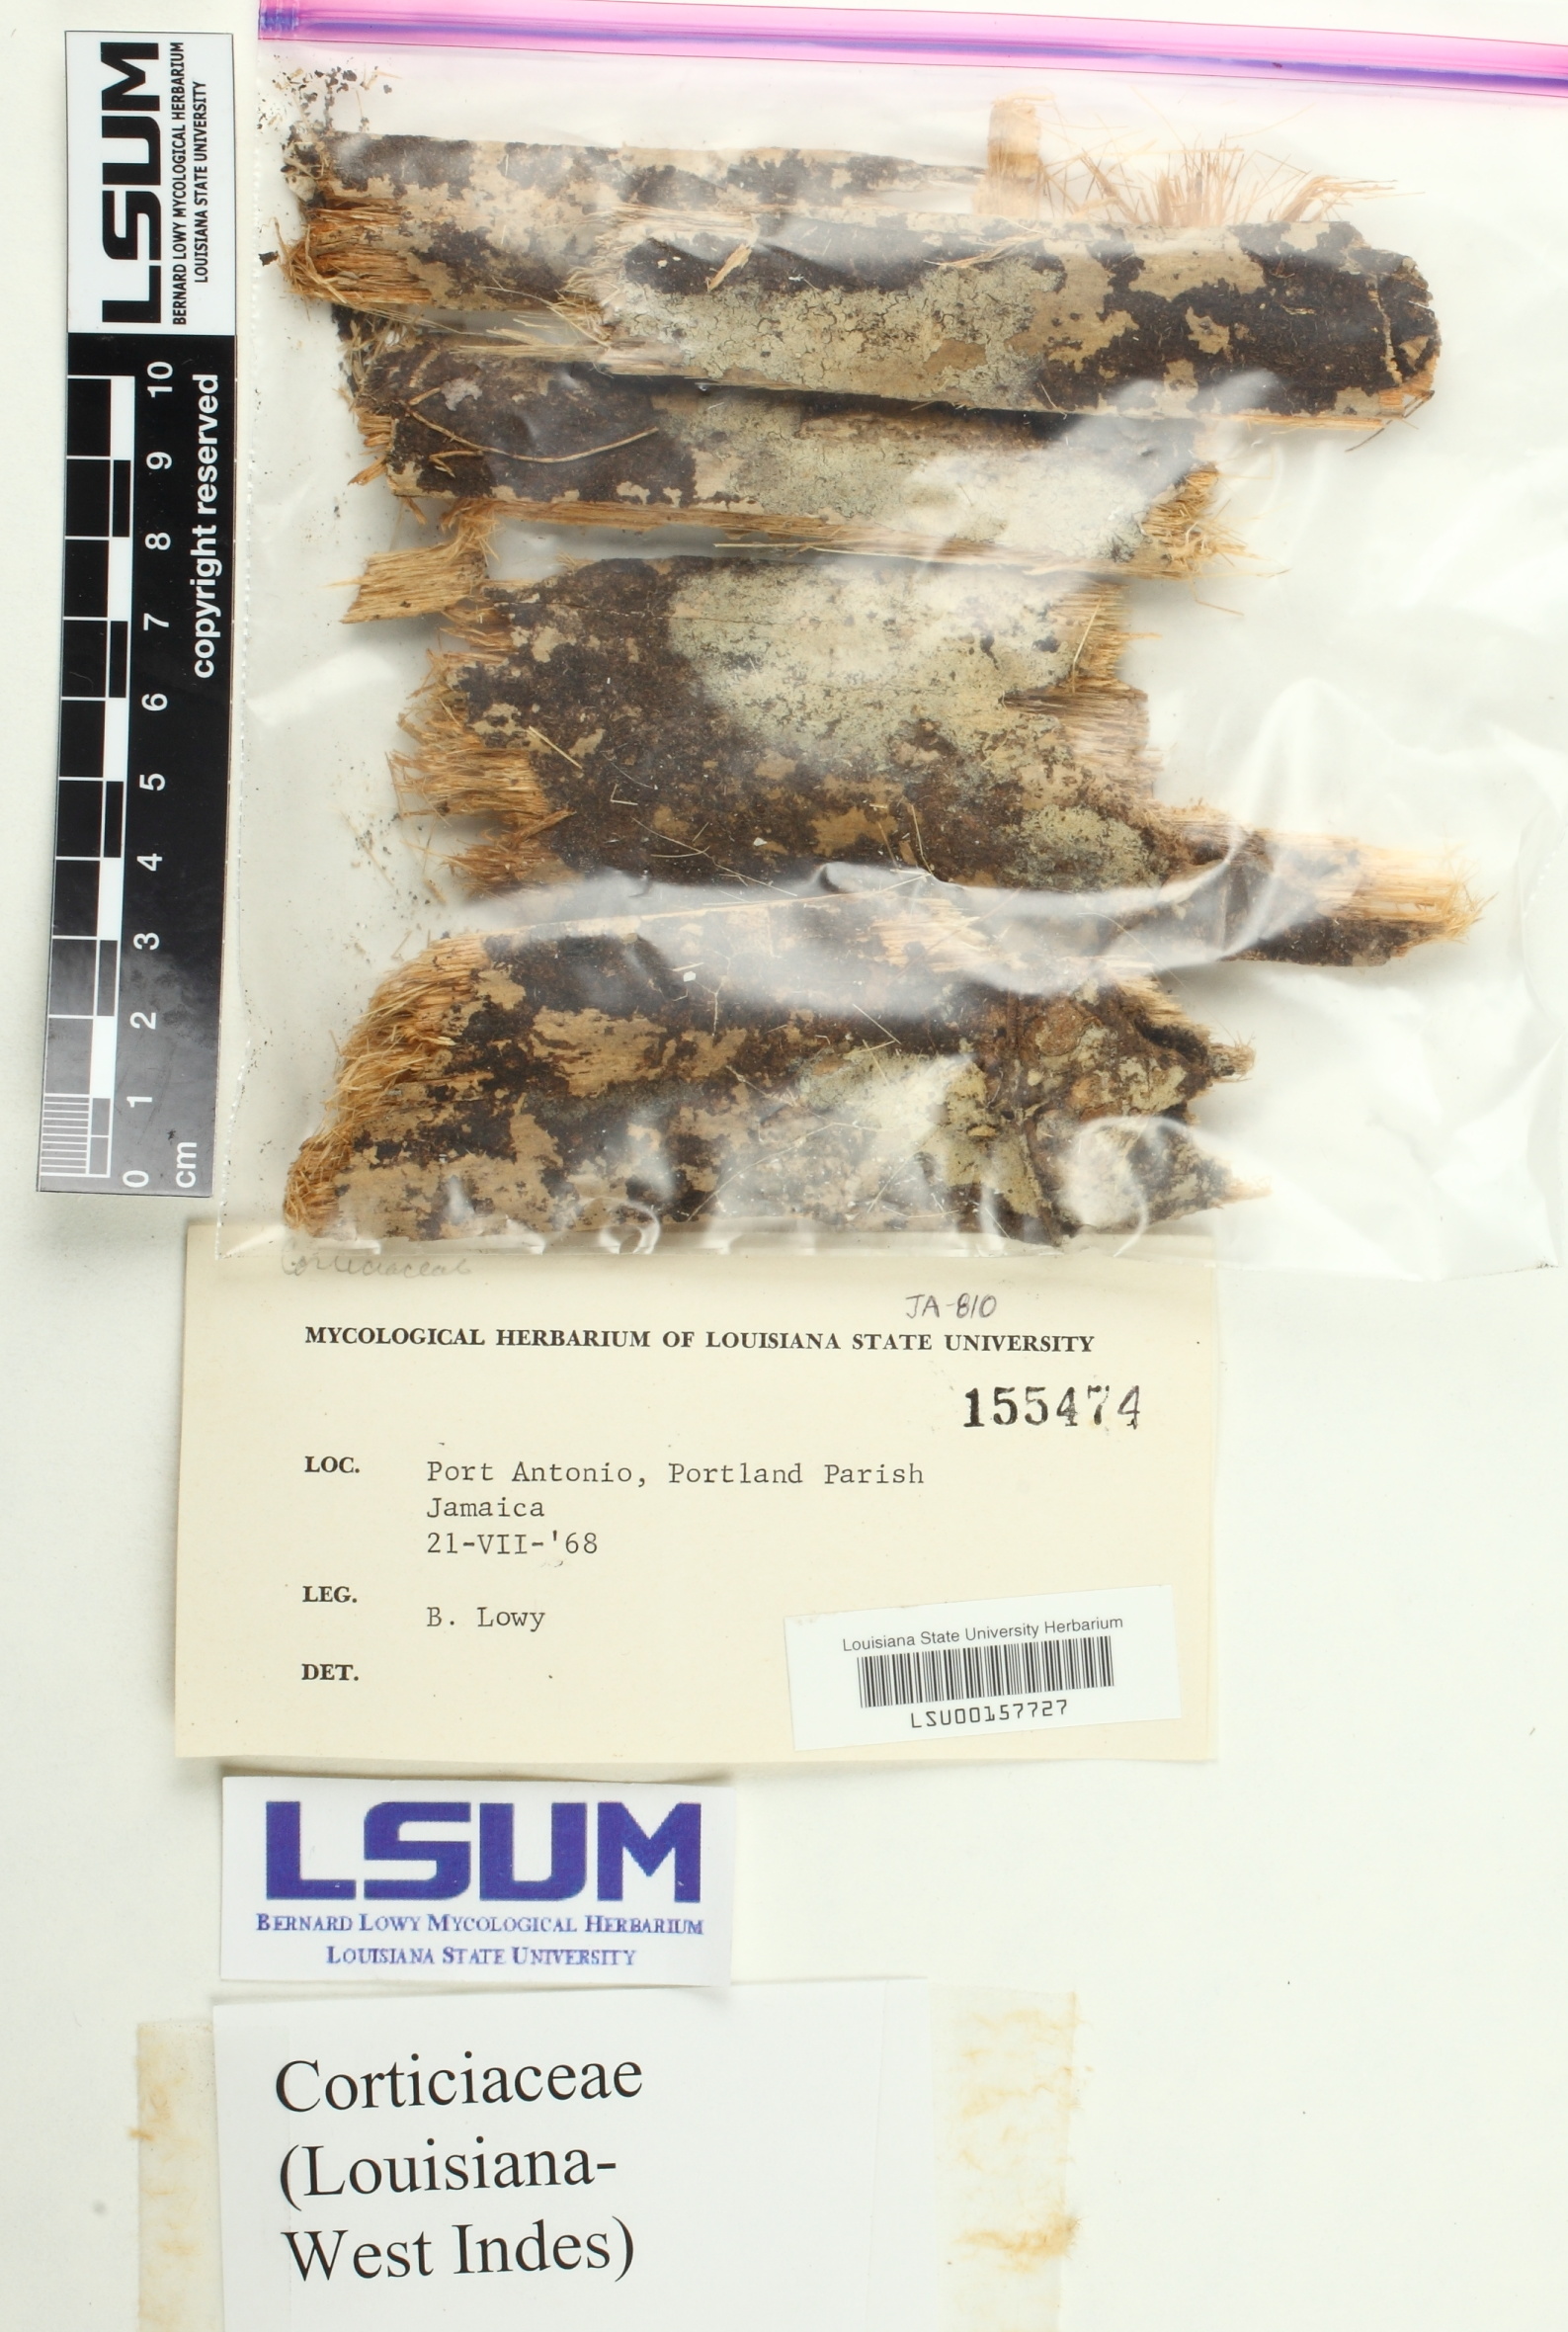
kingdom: Fungi
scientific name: Fungi
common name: Fungi
